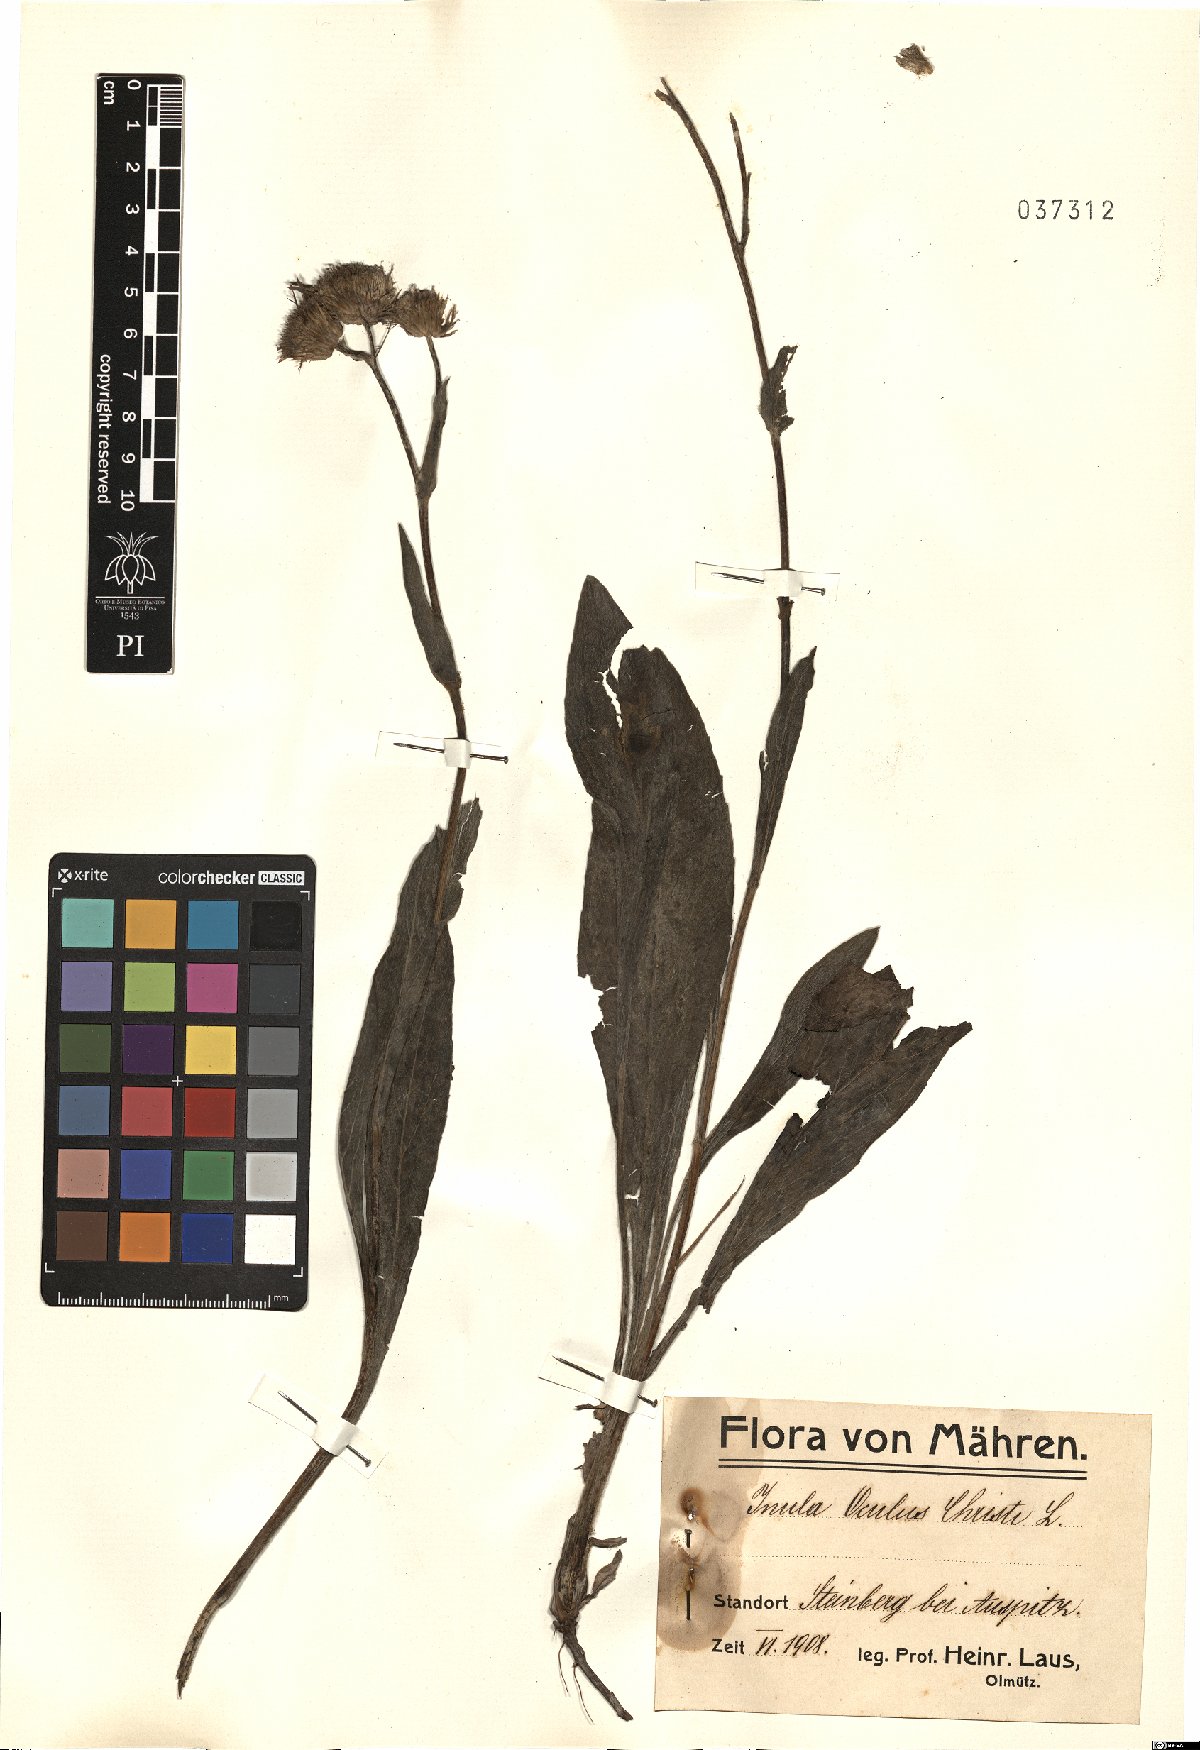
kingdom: Plantae
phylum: Tracheophyta
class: Magnoliopsida
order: Asterales
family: Asteraceae
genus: Pentanema
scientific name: Pentanema oculus-christi
